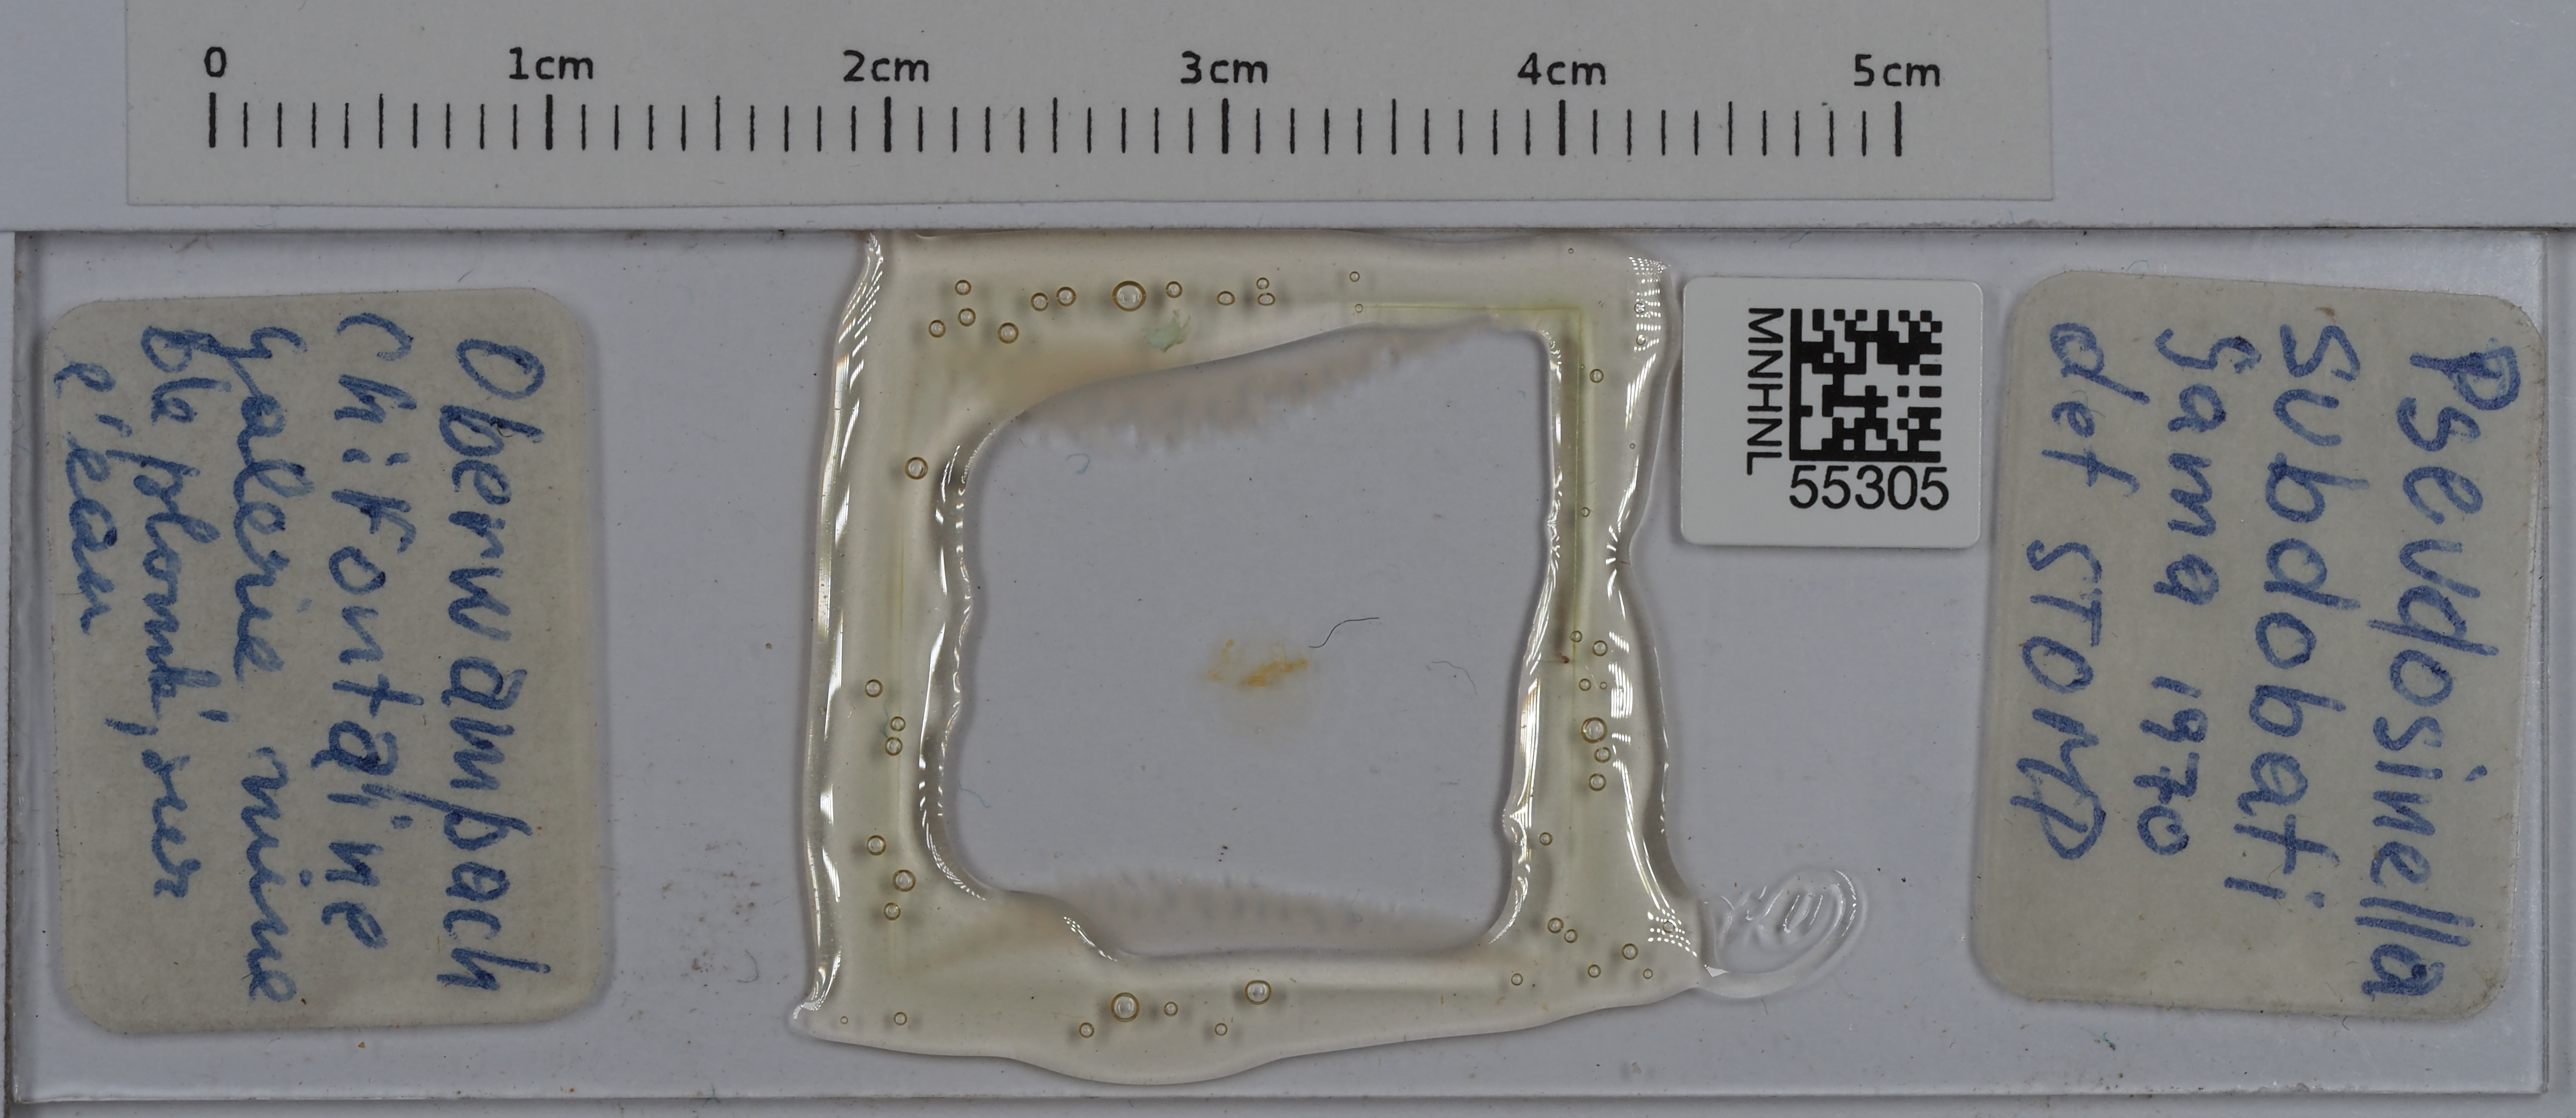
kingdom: Animalia
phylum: Arthropoda
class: Collembola
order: Entomobryomorpha
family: Entomobryidae
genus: Pseudosinella
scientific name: Pseudosinella subdobati
